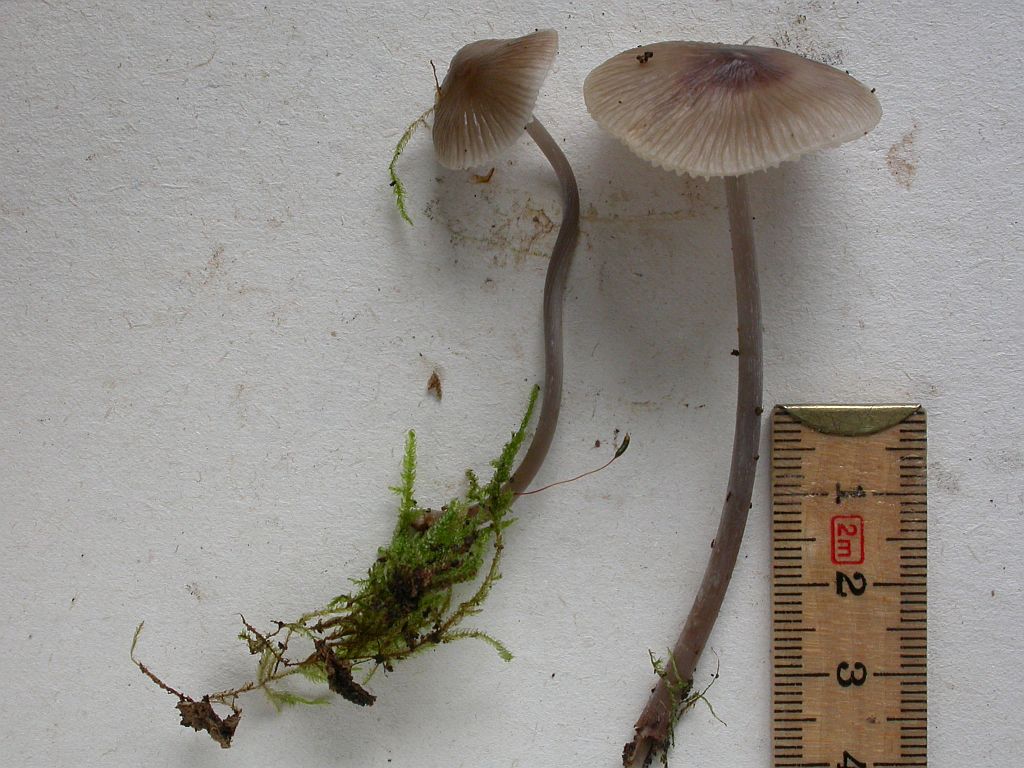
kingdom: Fungi
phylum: Basidiomycota
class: Agaricomycetes
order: Agaricales
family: Mycenaceae
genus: Mycena
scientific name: Mycena erubescens
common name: galde-huesvamp
